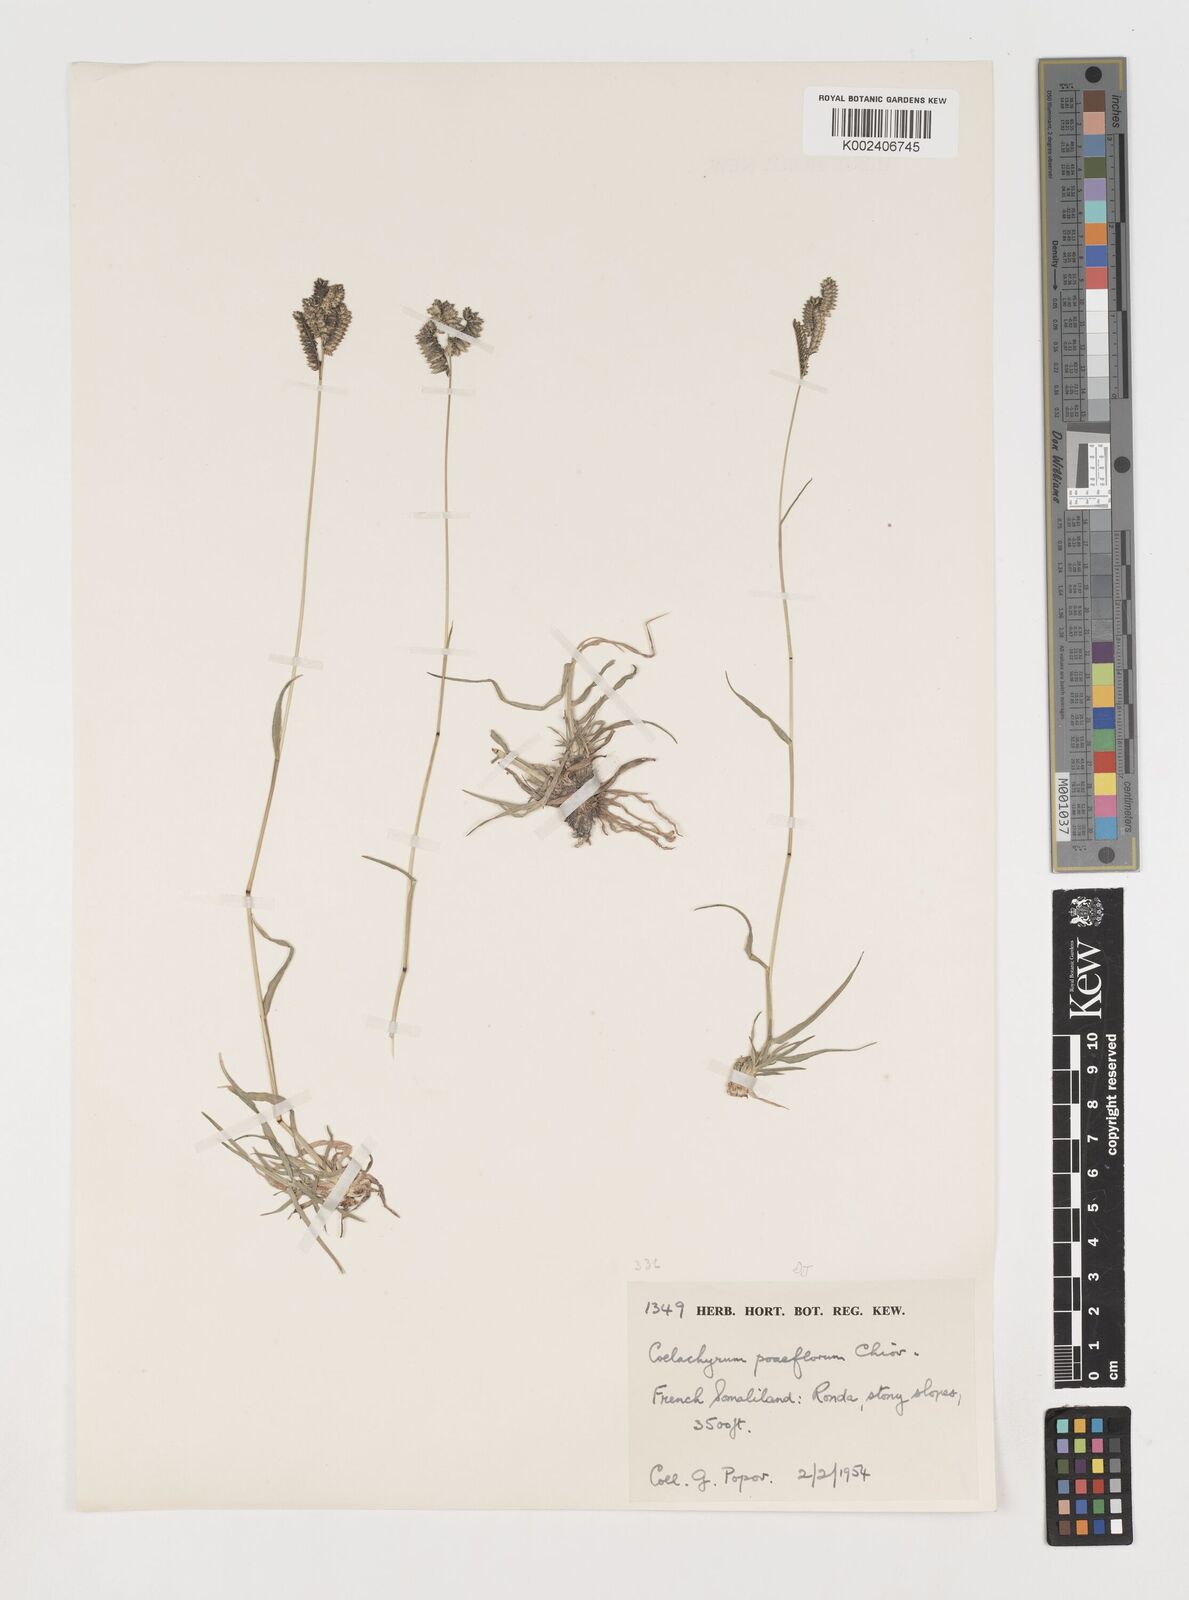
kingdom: Plantae
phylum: Tracheophyta
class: Liliopsida
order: Poales
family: Poaceae
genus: Coelachyrum
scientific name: Coelachyrum poiflorum
